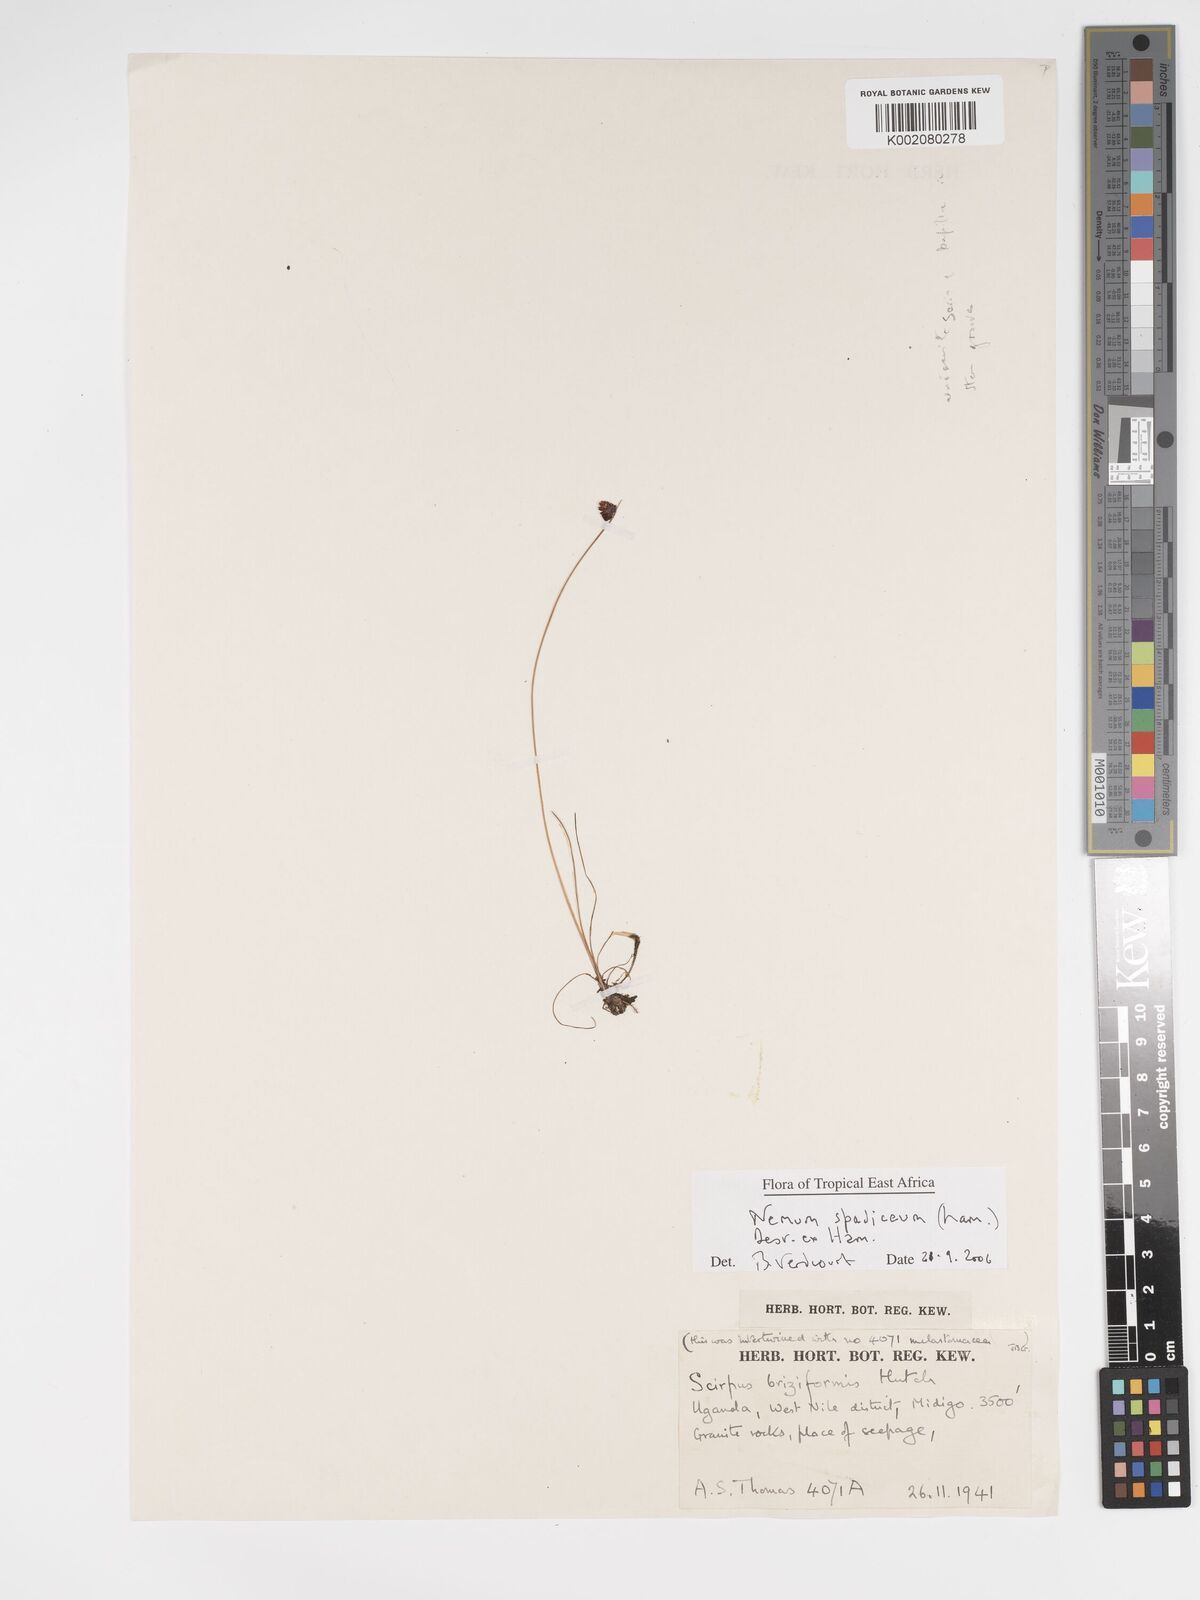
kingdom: Plantae
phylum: Tracheophyta
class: Liliopsida
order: Poales
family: Cyperaceae
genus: Bulbostylis
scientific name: Bulbostylis briziformis
